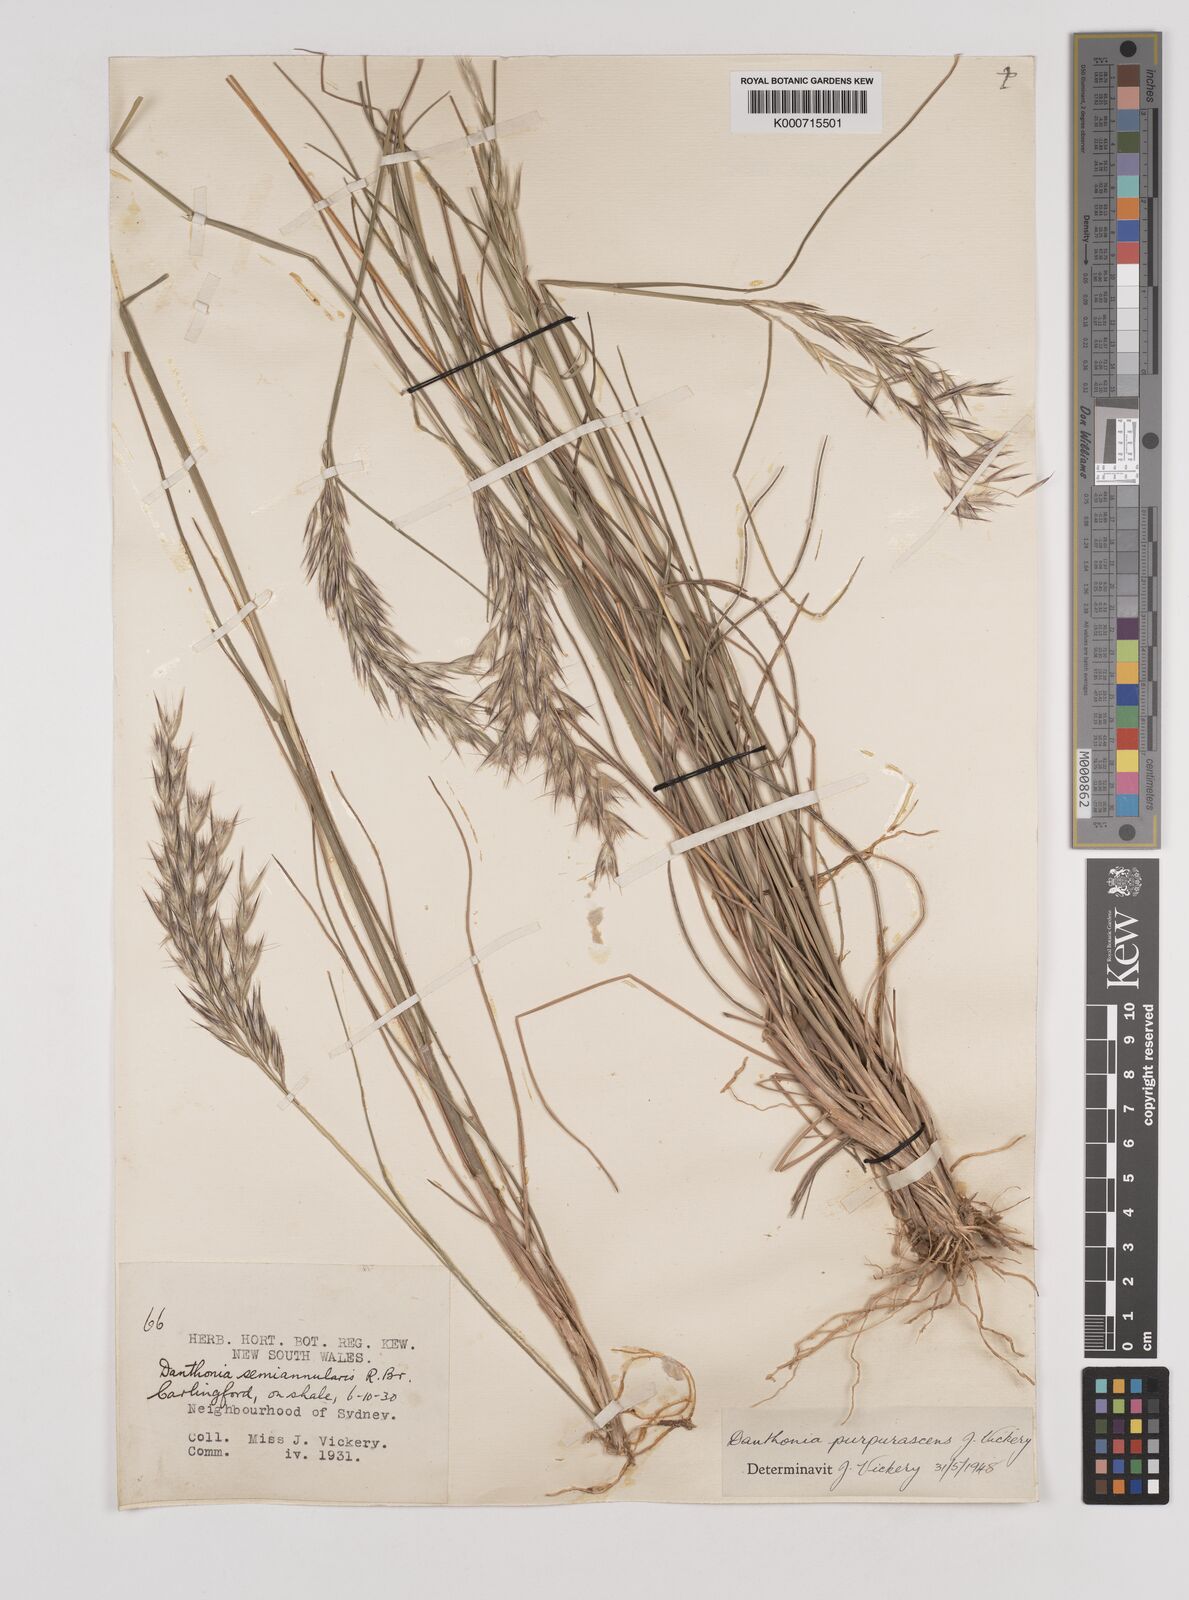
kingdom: Plantae
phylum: Tracheophyta
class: Liliopsida
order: Poales
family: Poaceae
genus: Rytidosperma
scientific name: Rytidosperma tenuius
